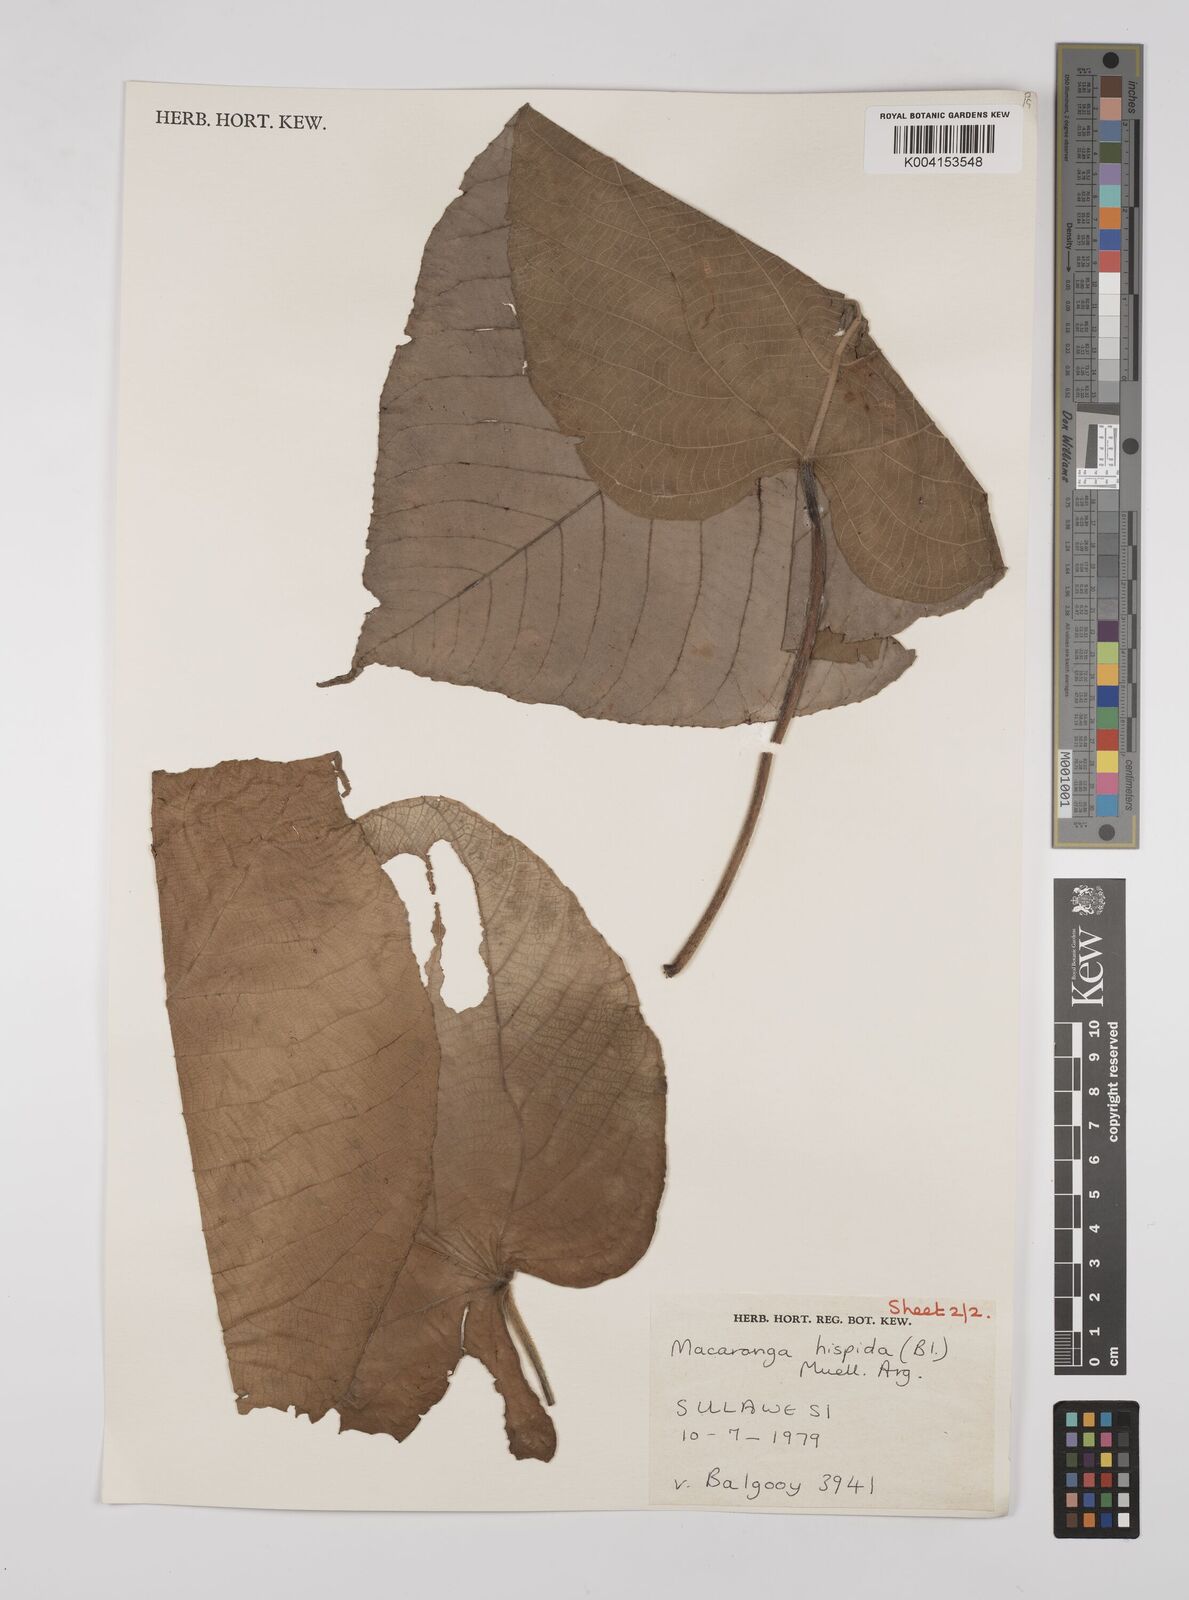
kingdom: Plantae
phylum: Tracheophyta
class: Magnoliopsida
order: Malpighiales
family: Euphorbiaceae
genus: Macaranga
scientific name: Macaranga hispida
